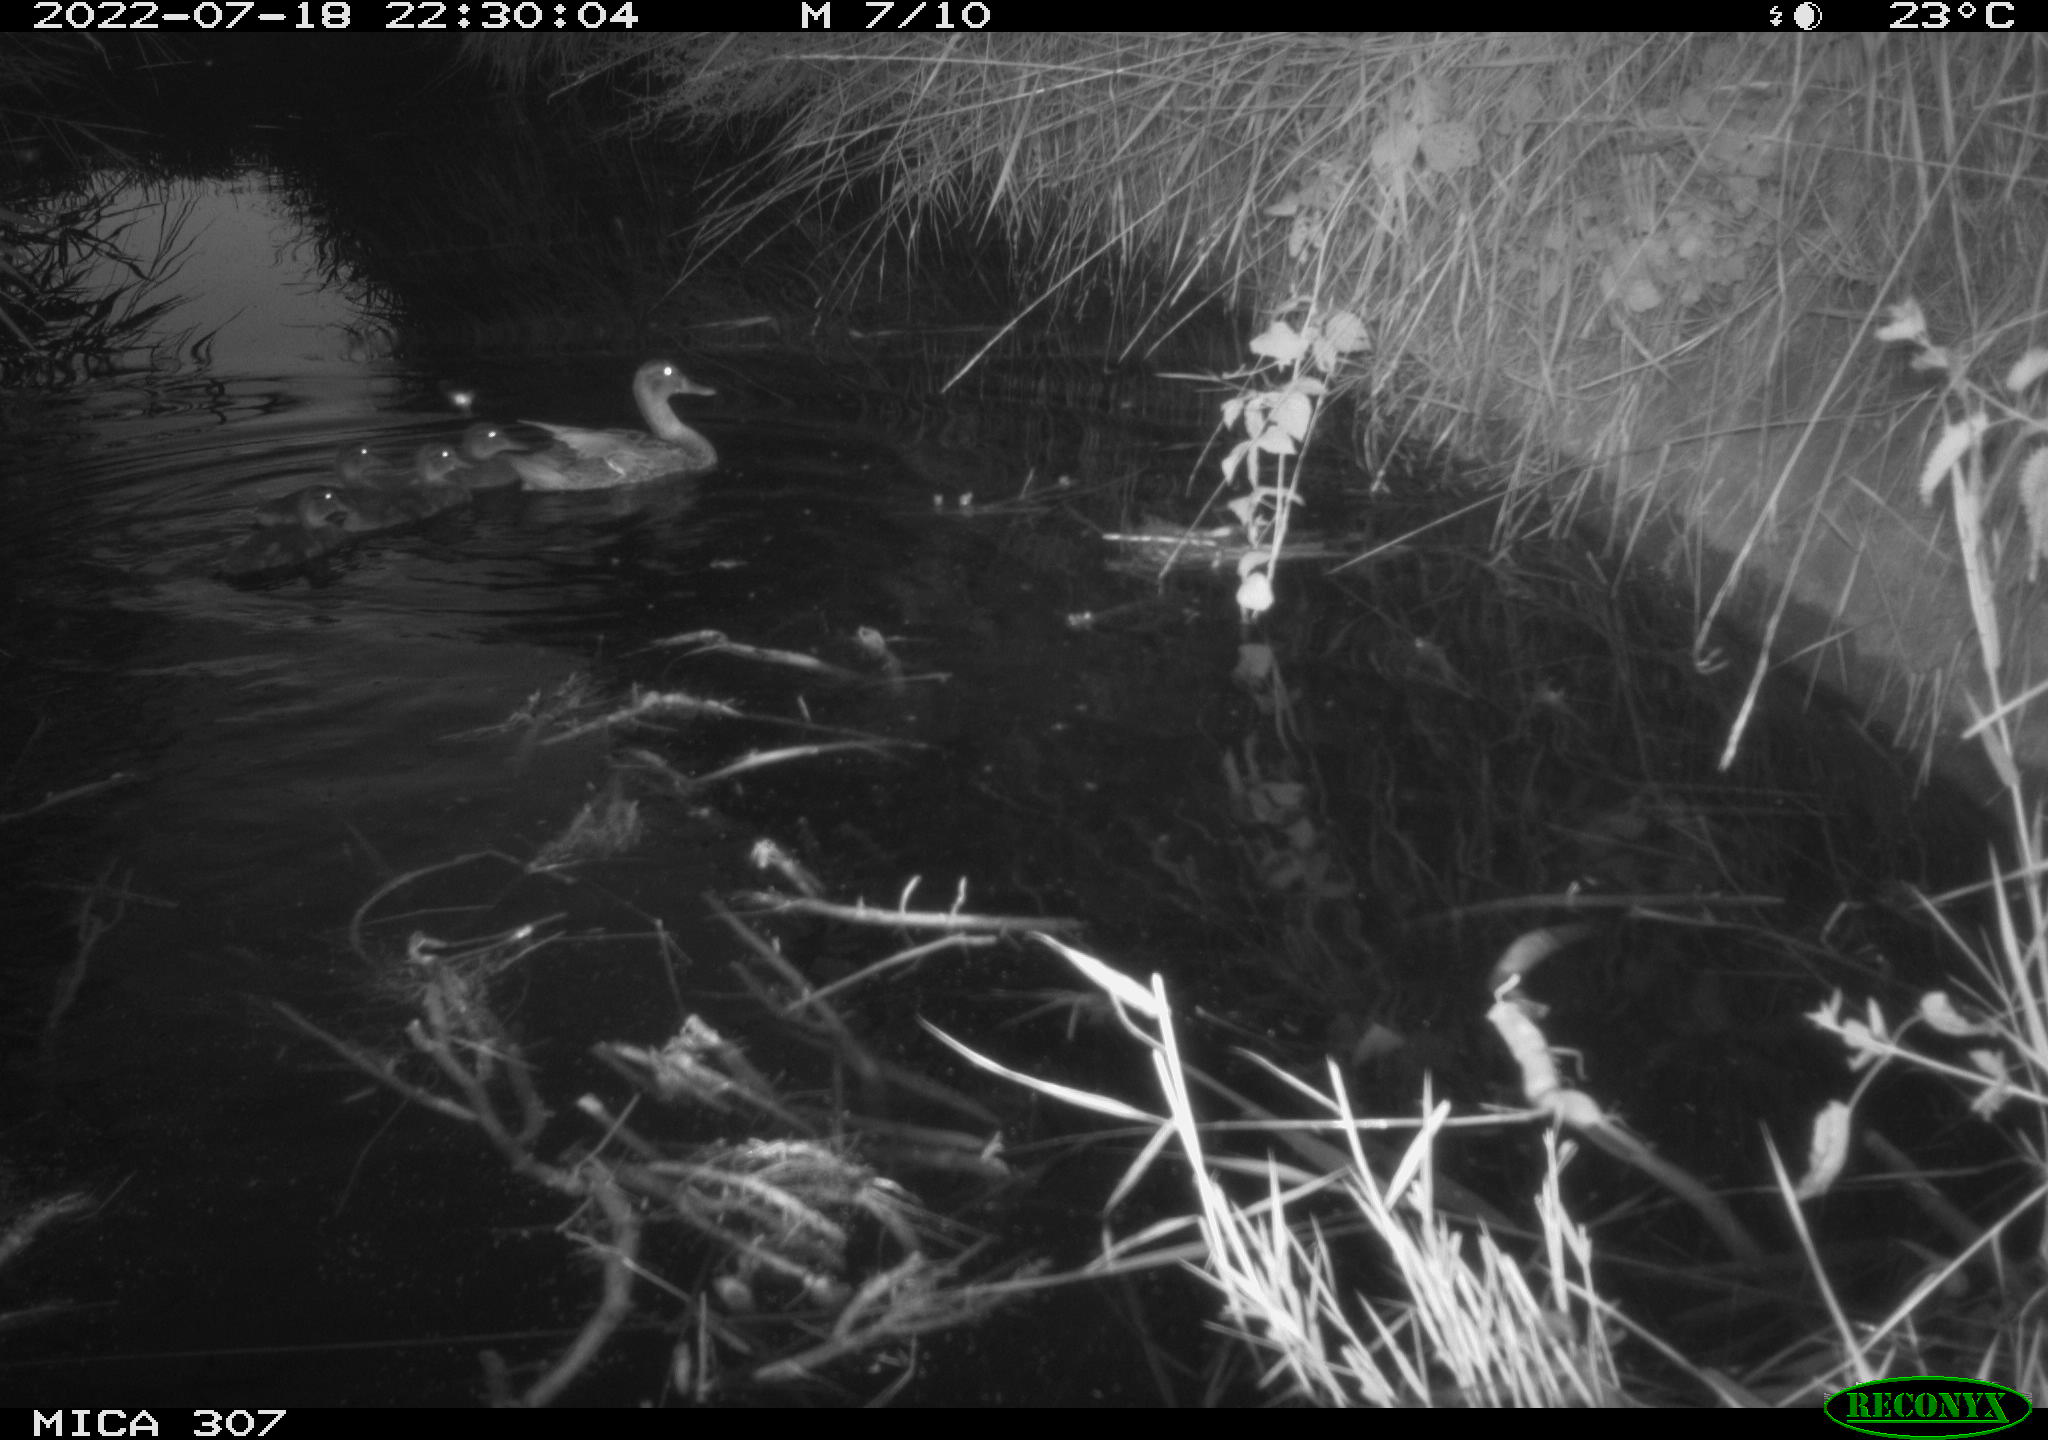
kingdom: Animalia
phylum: Chordata
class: Aves
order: Anseriformes
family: Anatidae
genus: Anas
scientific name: Anas platyrhynchos
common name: Mallard
